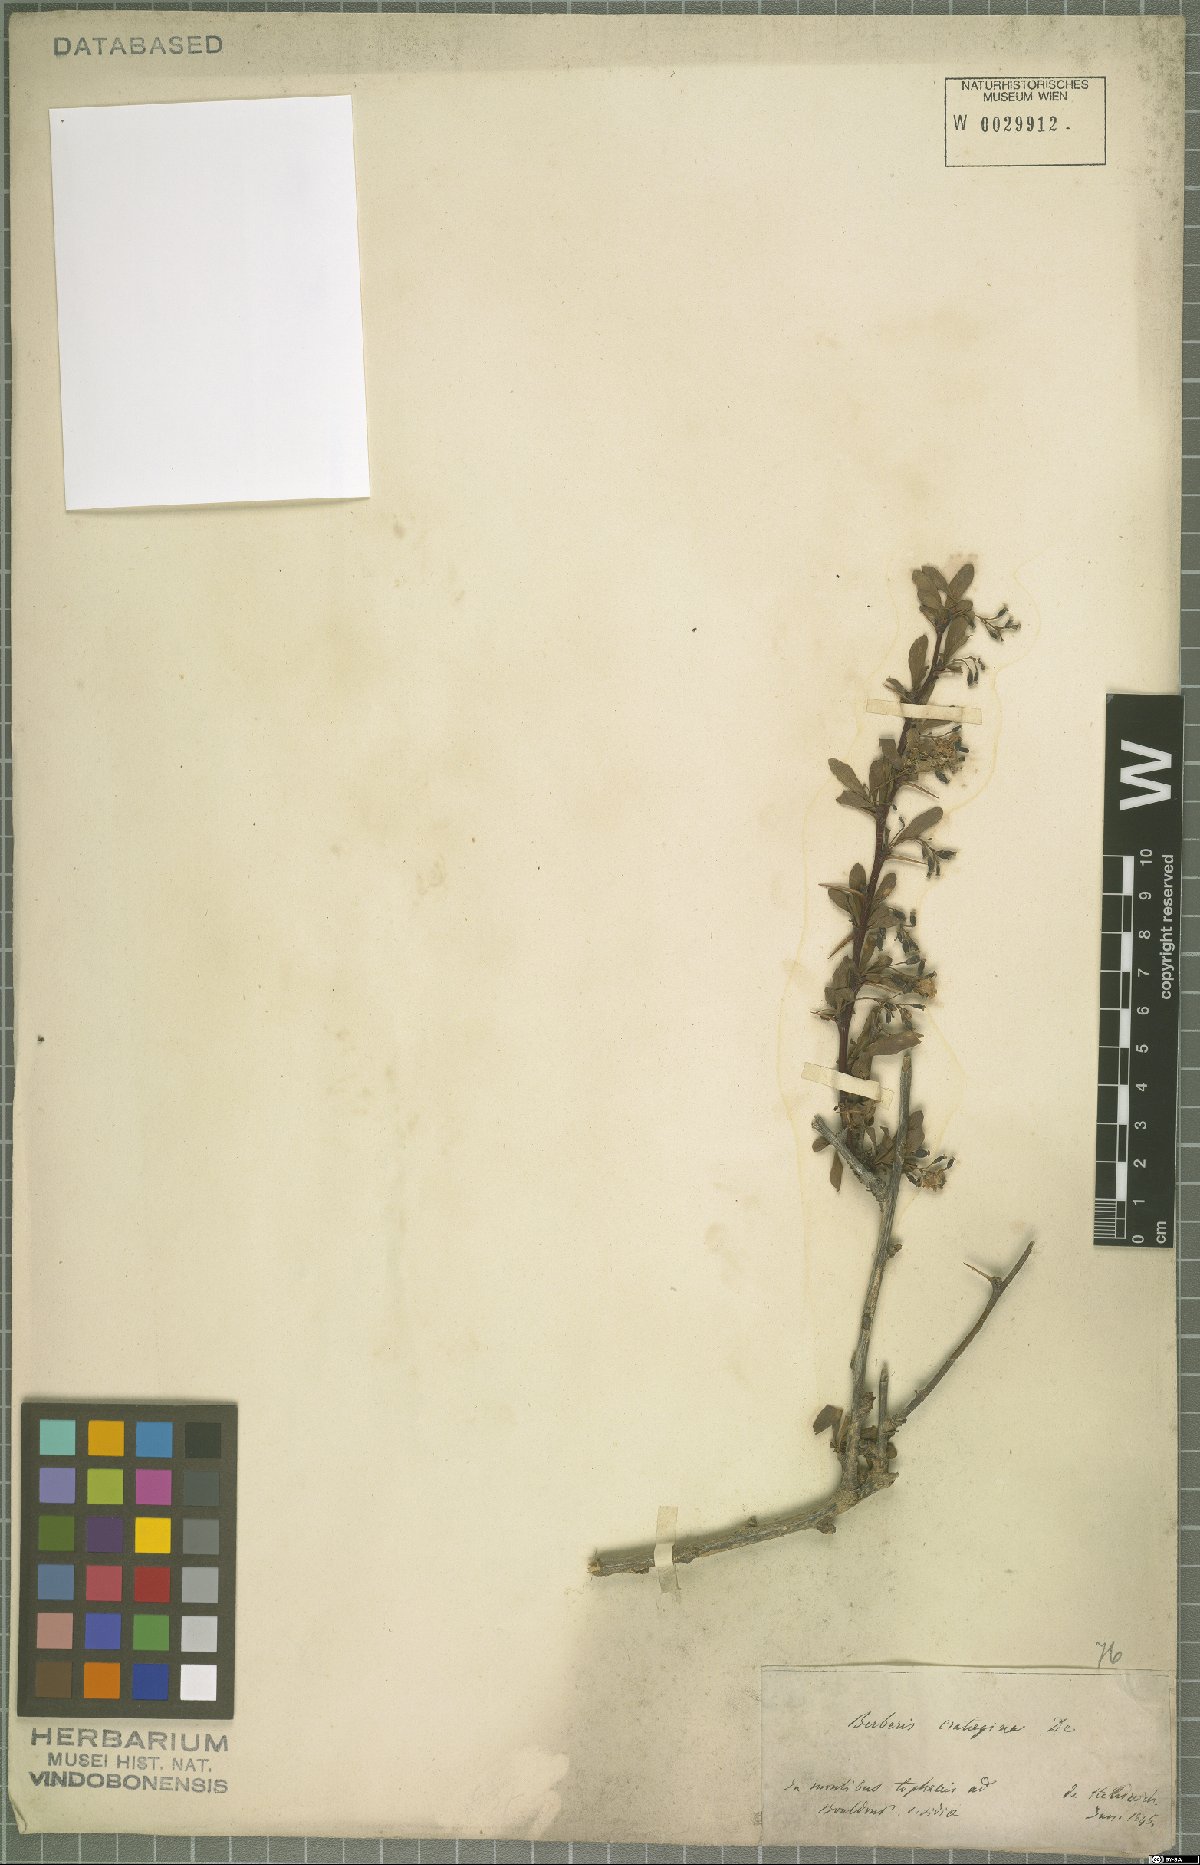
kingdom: Plantae
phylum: Tracheophyta
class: Magnoliopsida
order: Ranunculales
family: Berberidaceae
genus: Berberis
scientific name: Berberis crataegina
